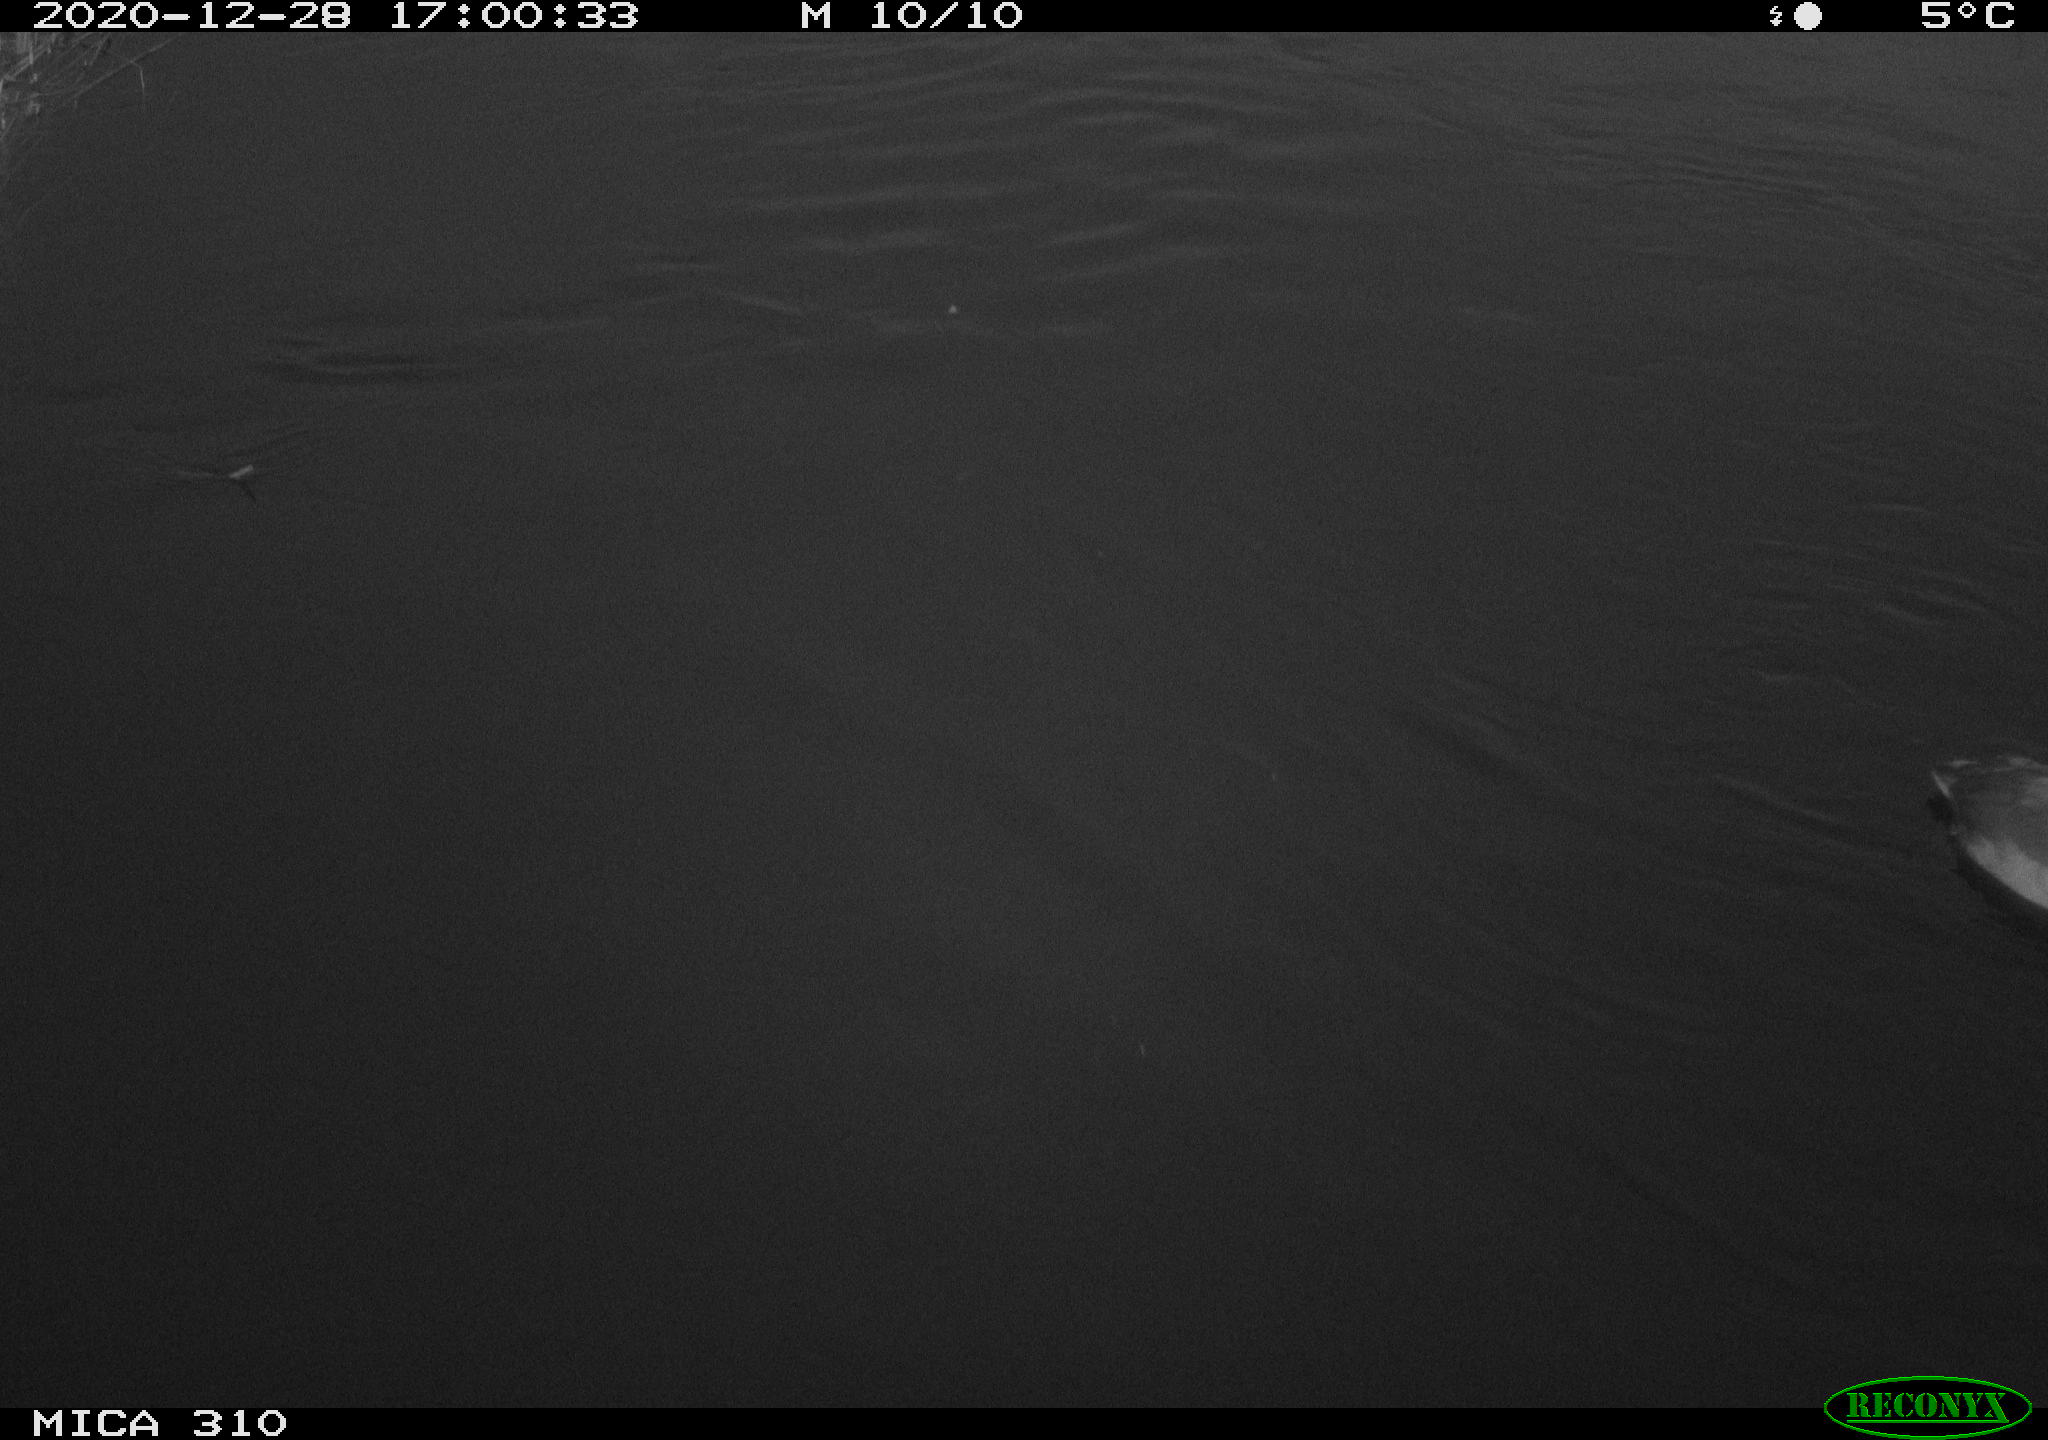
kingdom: Animalia
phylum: Chordata
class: Aves
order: Gruiformes
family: Rallidae
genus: Fulica
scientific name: Fulica atra
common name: Eurasian coot
